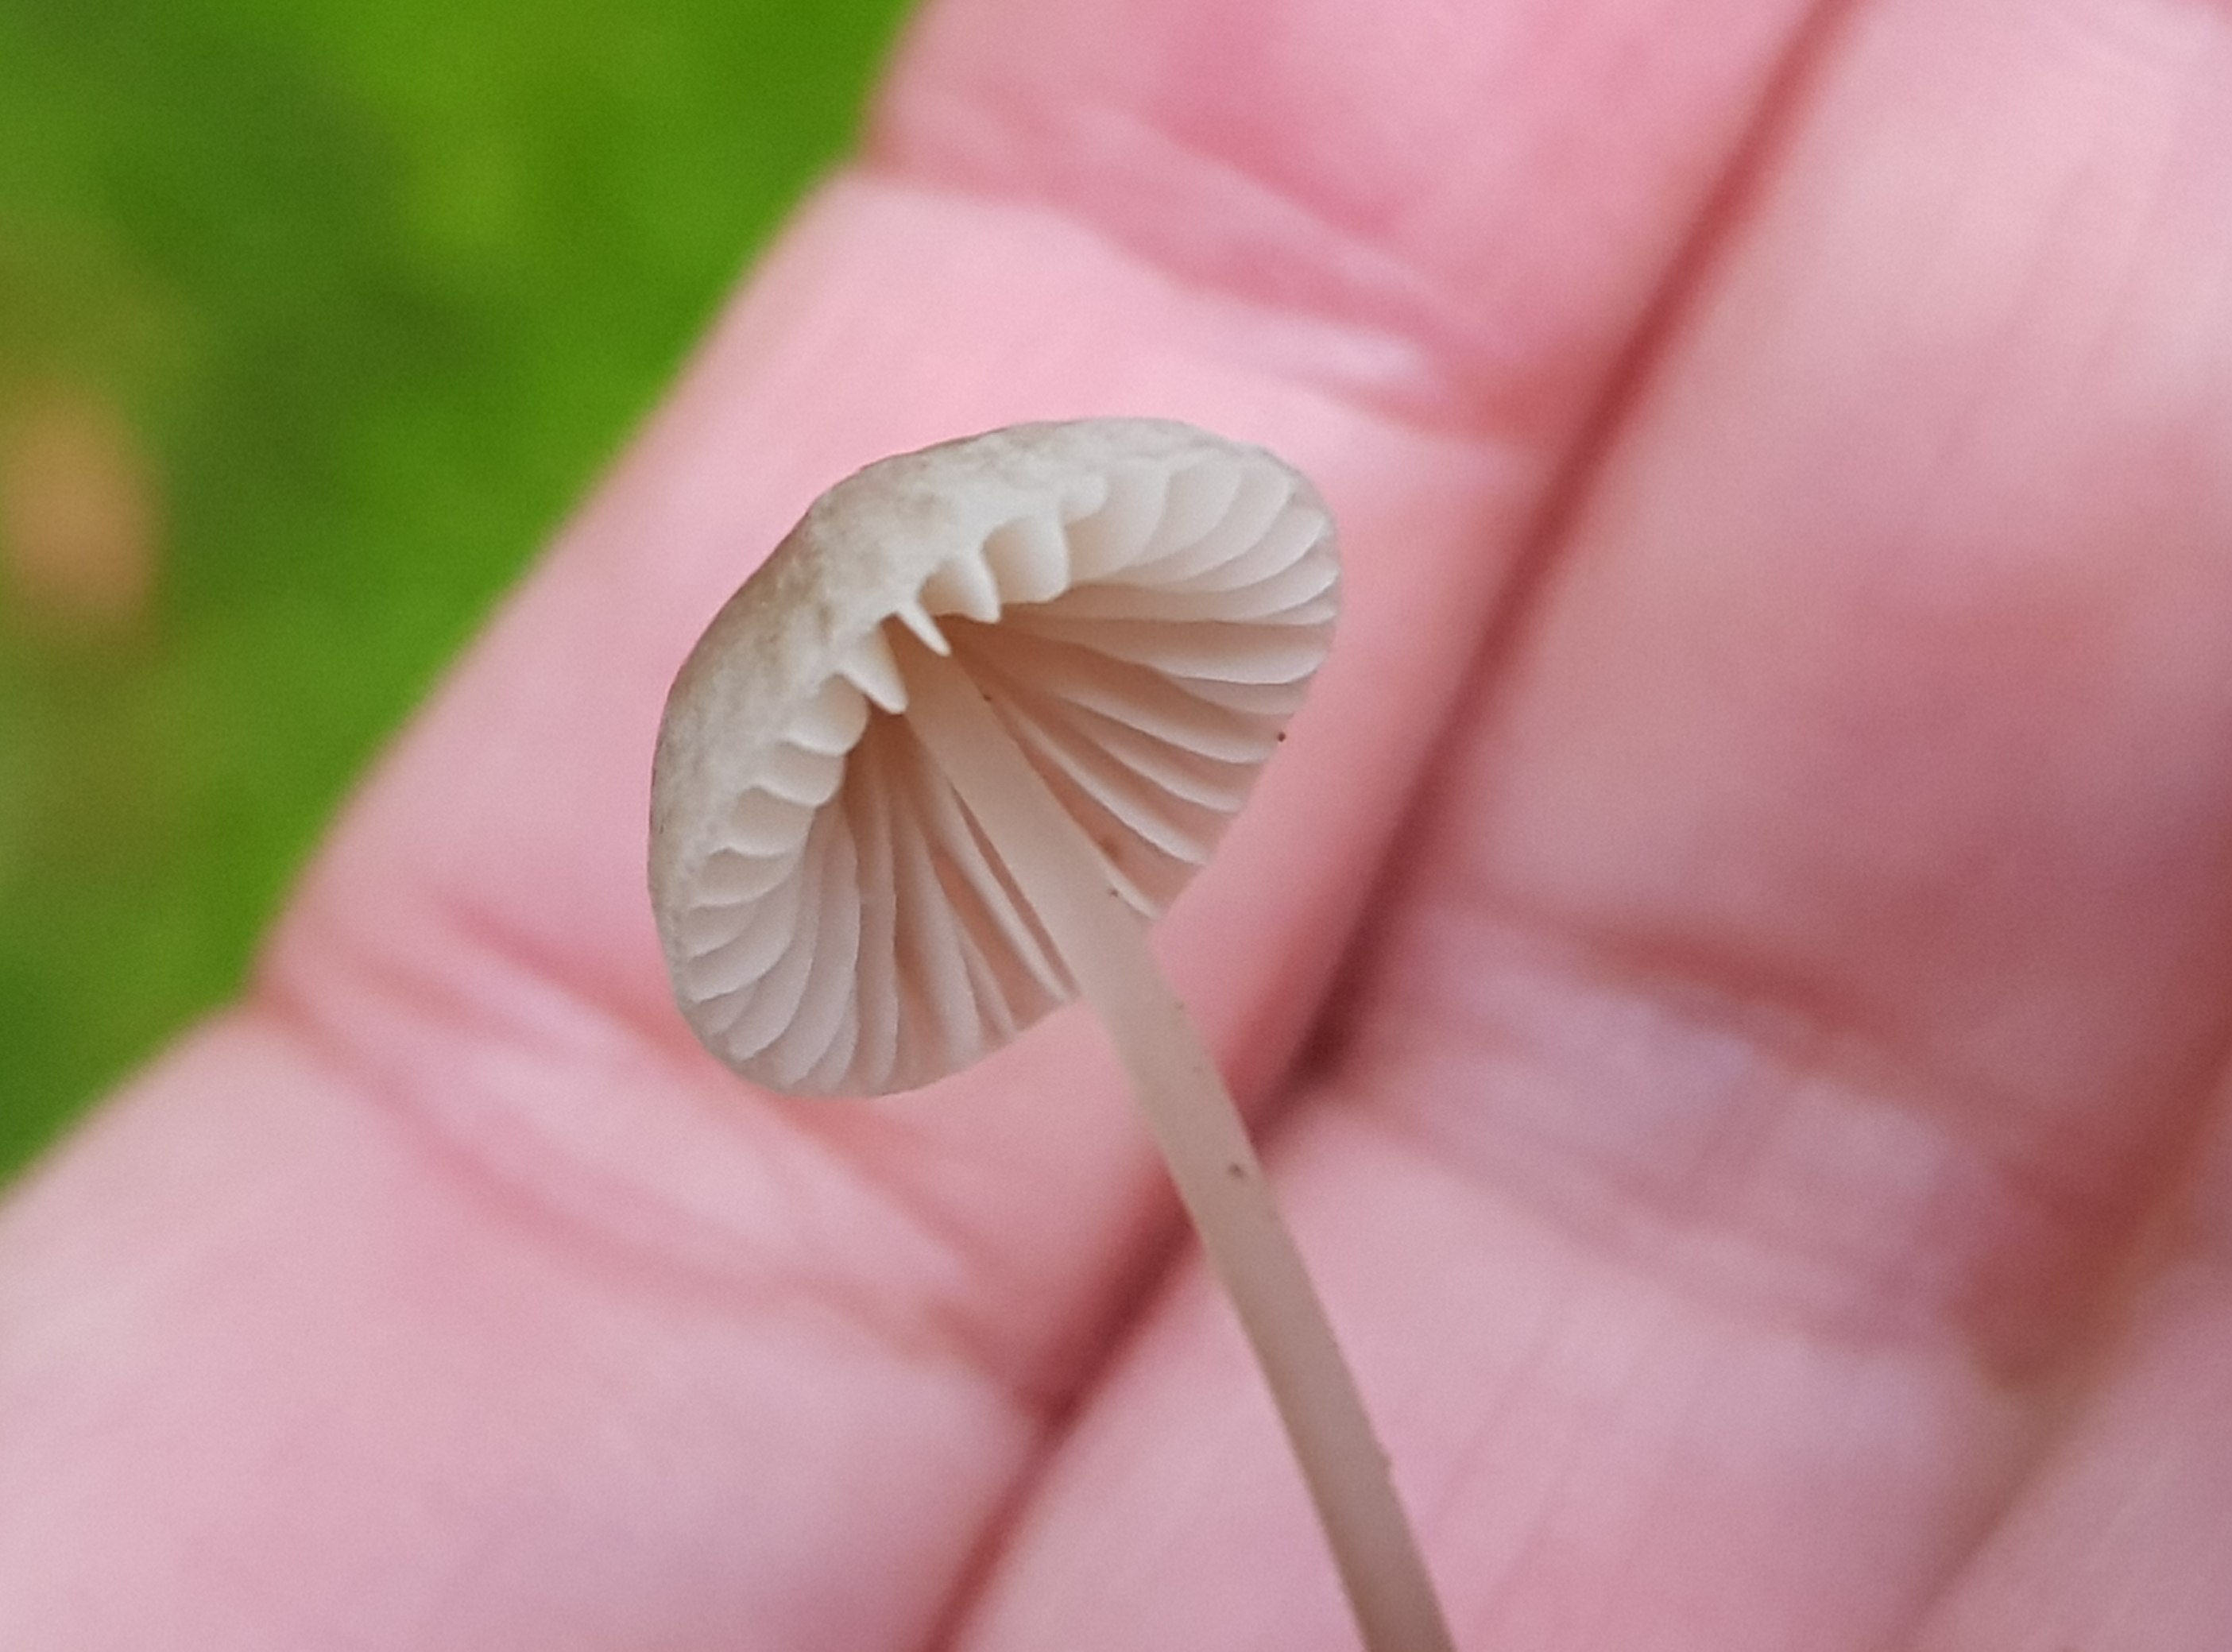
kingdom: Fungi
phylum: Basidiomycota
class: Agaricomycetes
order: Agaricales
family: Mycenaceae
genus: Mycena
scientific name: Mycena
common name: huesvamp
